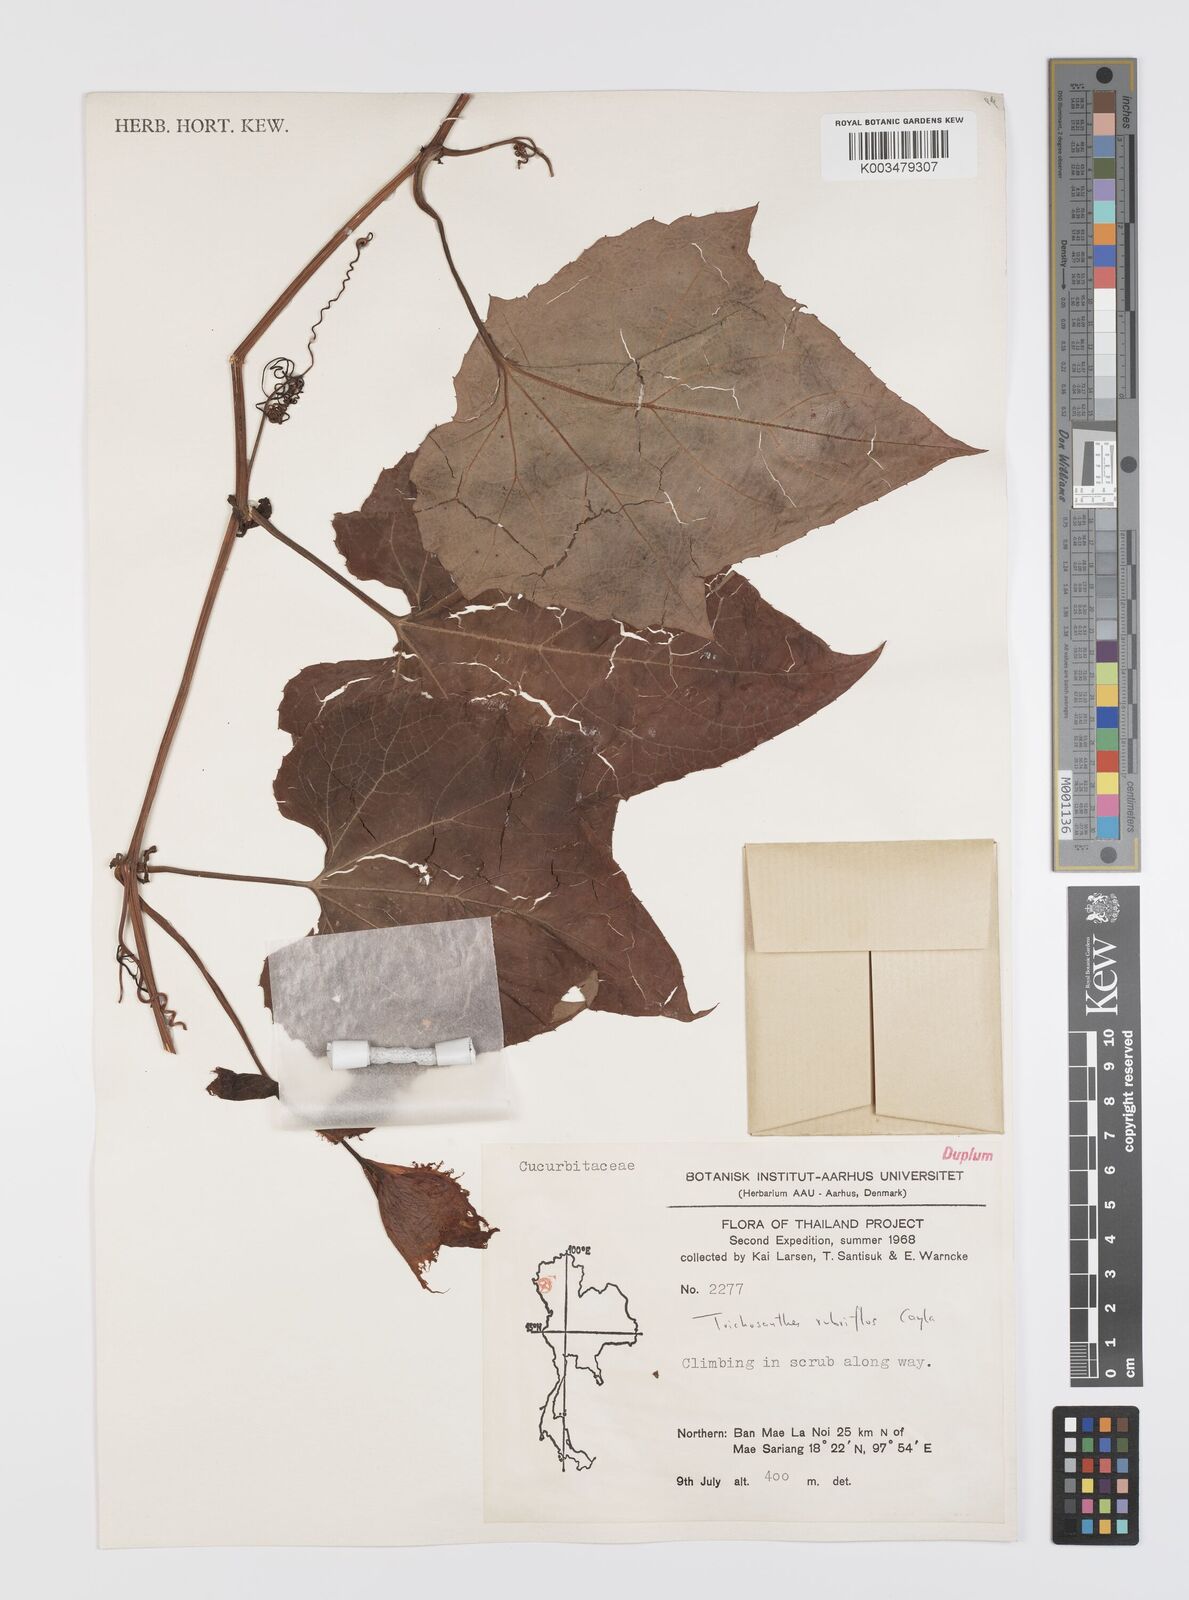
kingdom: Plantae
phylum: Tracheophyta
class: Magnoliopsida
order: Cucurbitales
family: Cucurbitaceae
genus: Trichosanthes
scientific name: Trichosanthes rubriflos
